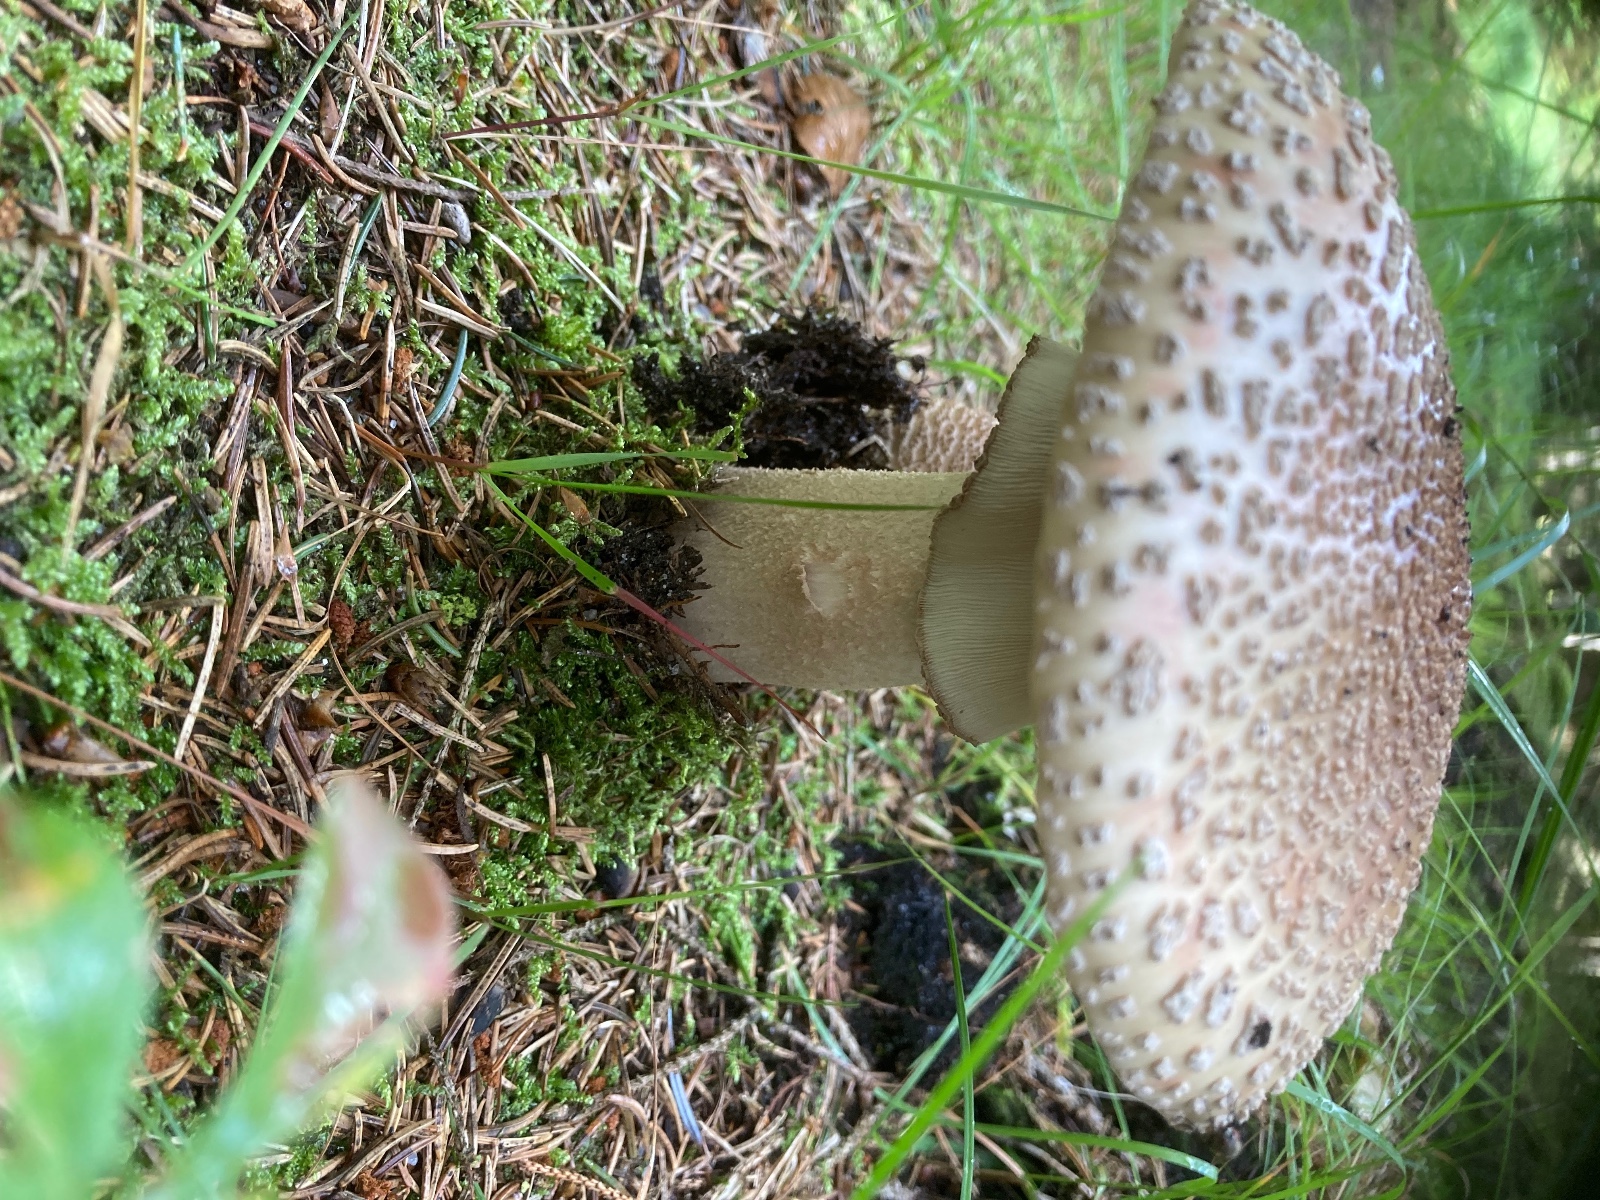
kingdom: Fungi
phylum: Basidiomycota
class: Agaricomycetes
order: Agaricales
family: Amanitaceae
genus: Amanita
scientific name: Amanita rubescens
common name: rødmende fluesvamp
